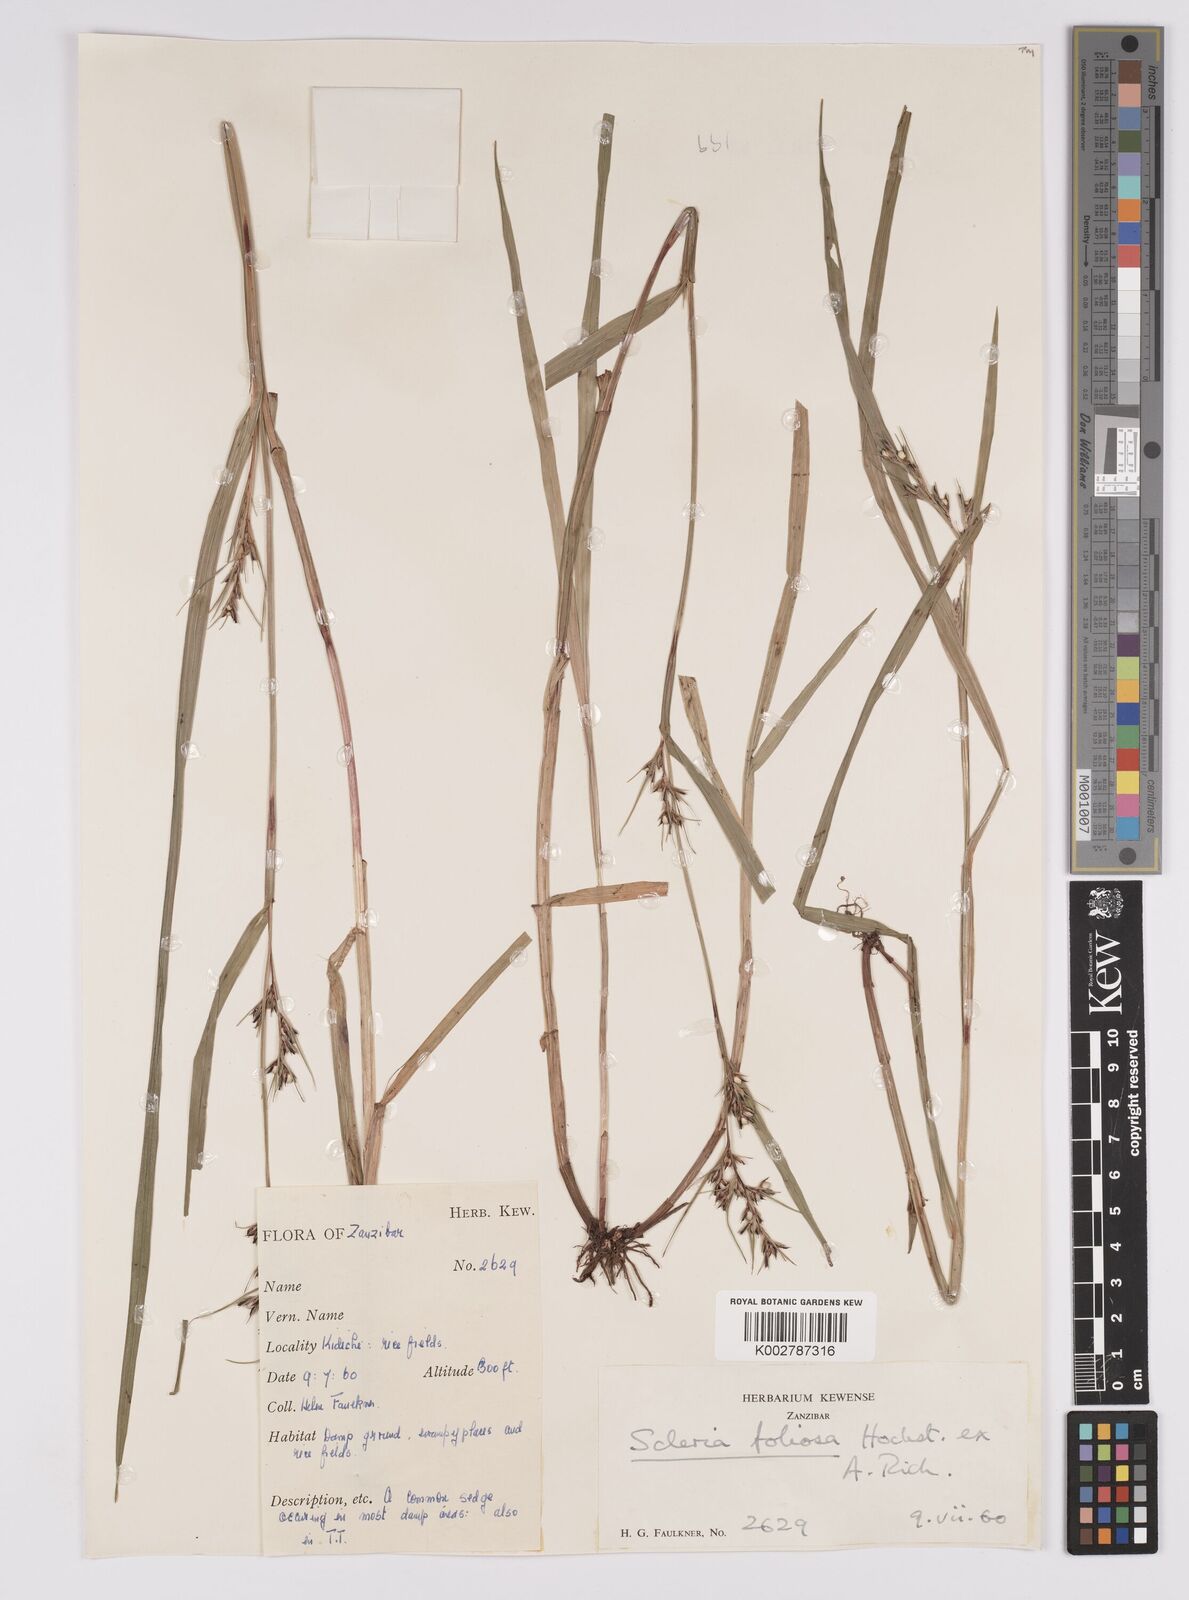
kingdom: Plantae
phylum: Tracheophyta
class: Liliopsida
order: Poales
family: Cyperaceae
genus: Scleria
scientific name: Scleria foliosa
